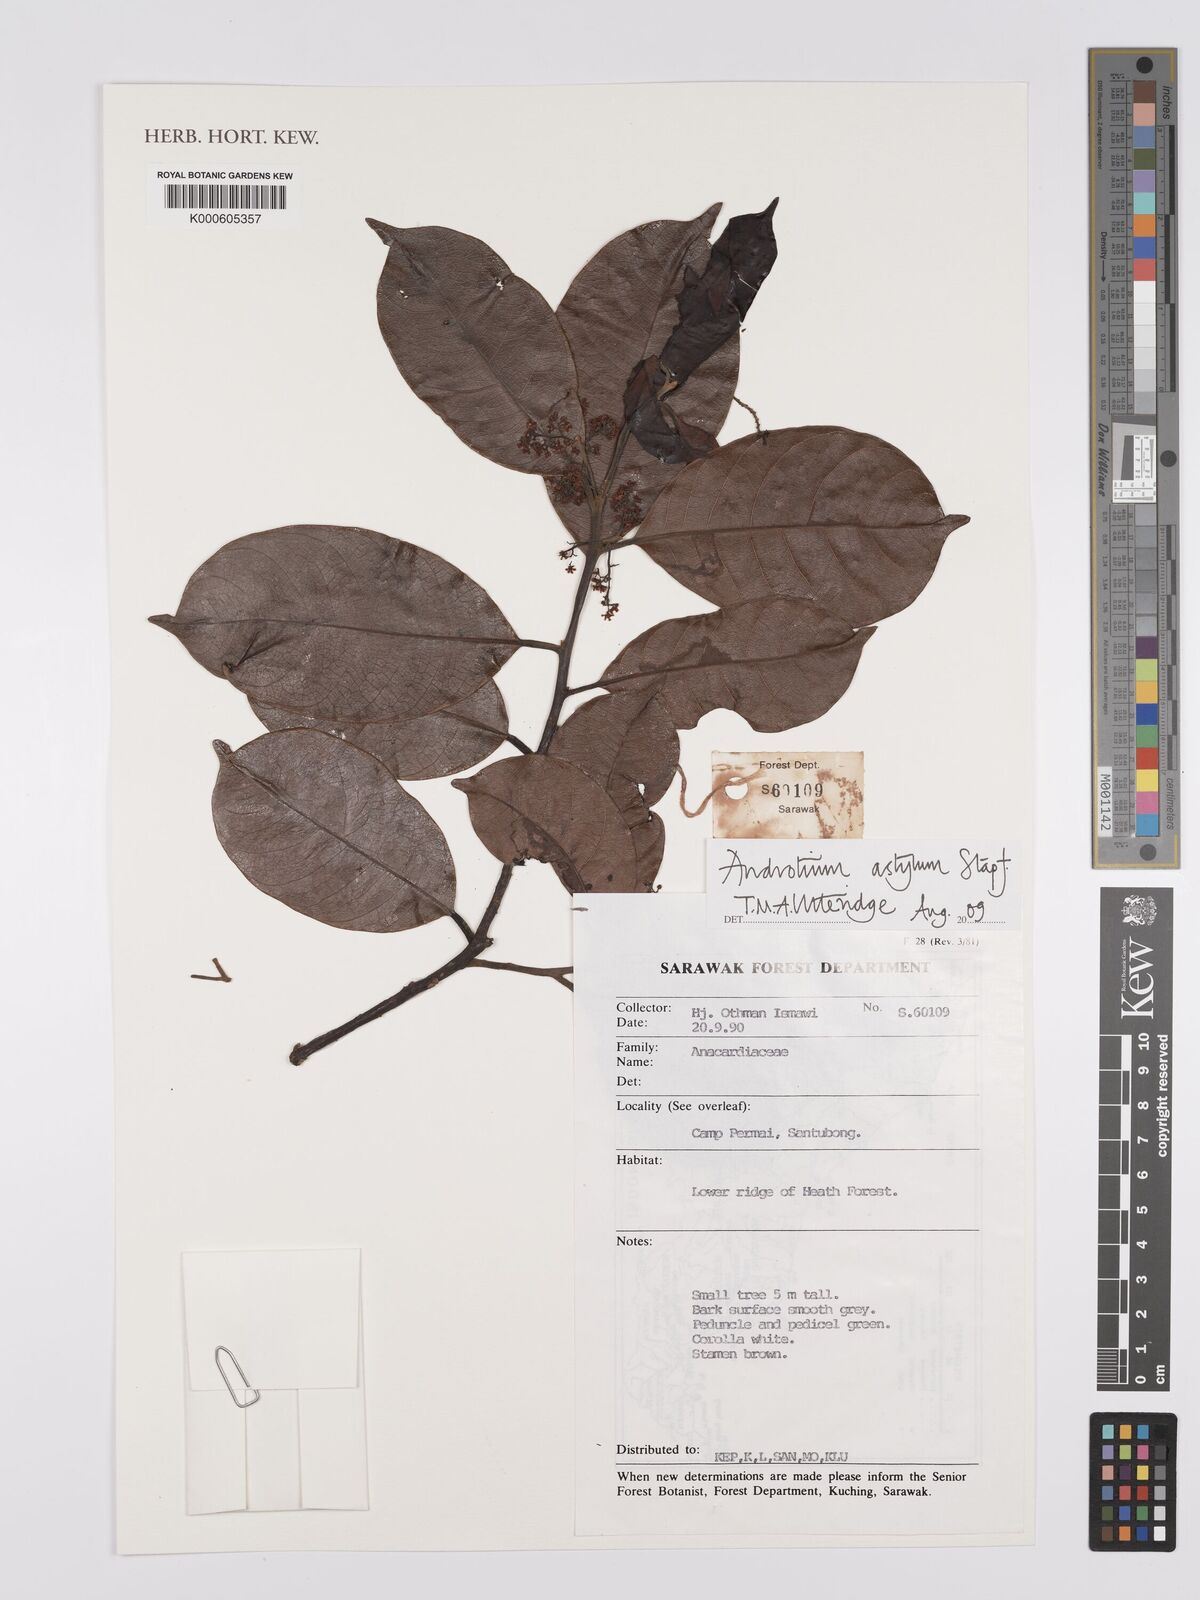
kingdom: Plantae
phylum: Tracheophyta
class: Magnoliopsida
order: Sapindales
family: Anacardiaceae
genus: Androtium
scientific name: Androtium astylum
